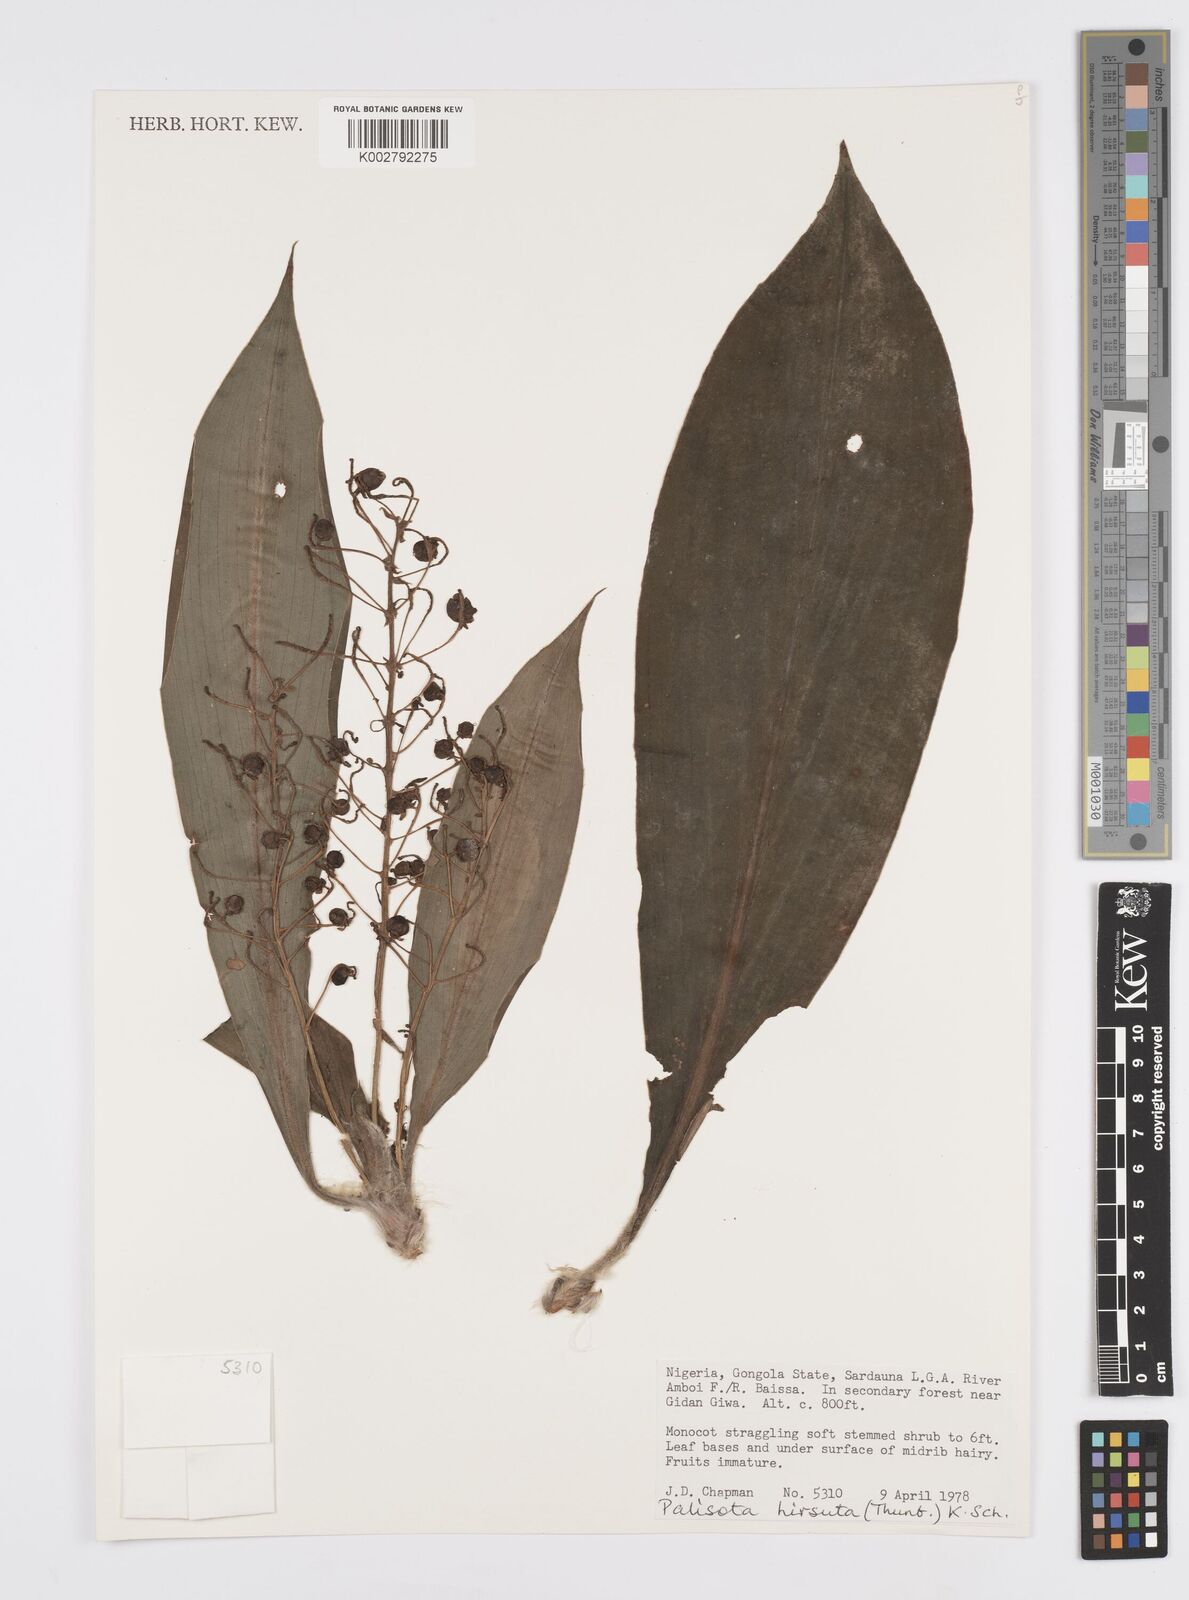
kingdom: Plantae
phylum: Tracheophyta
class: Liliopsida
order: Commelinales
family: Commelinaceae
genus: Palisota
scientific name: Palisota hirsuta
